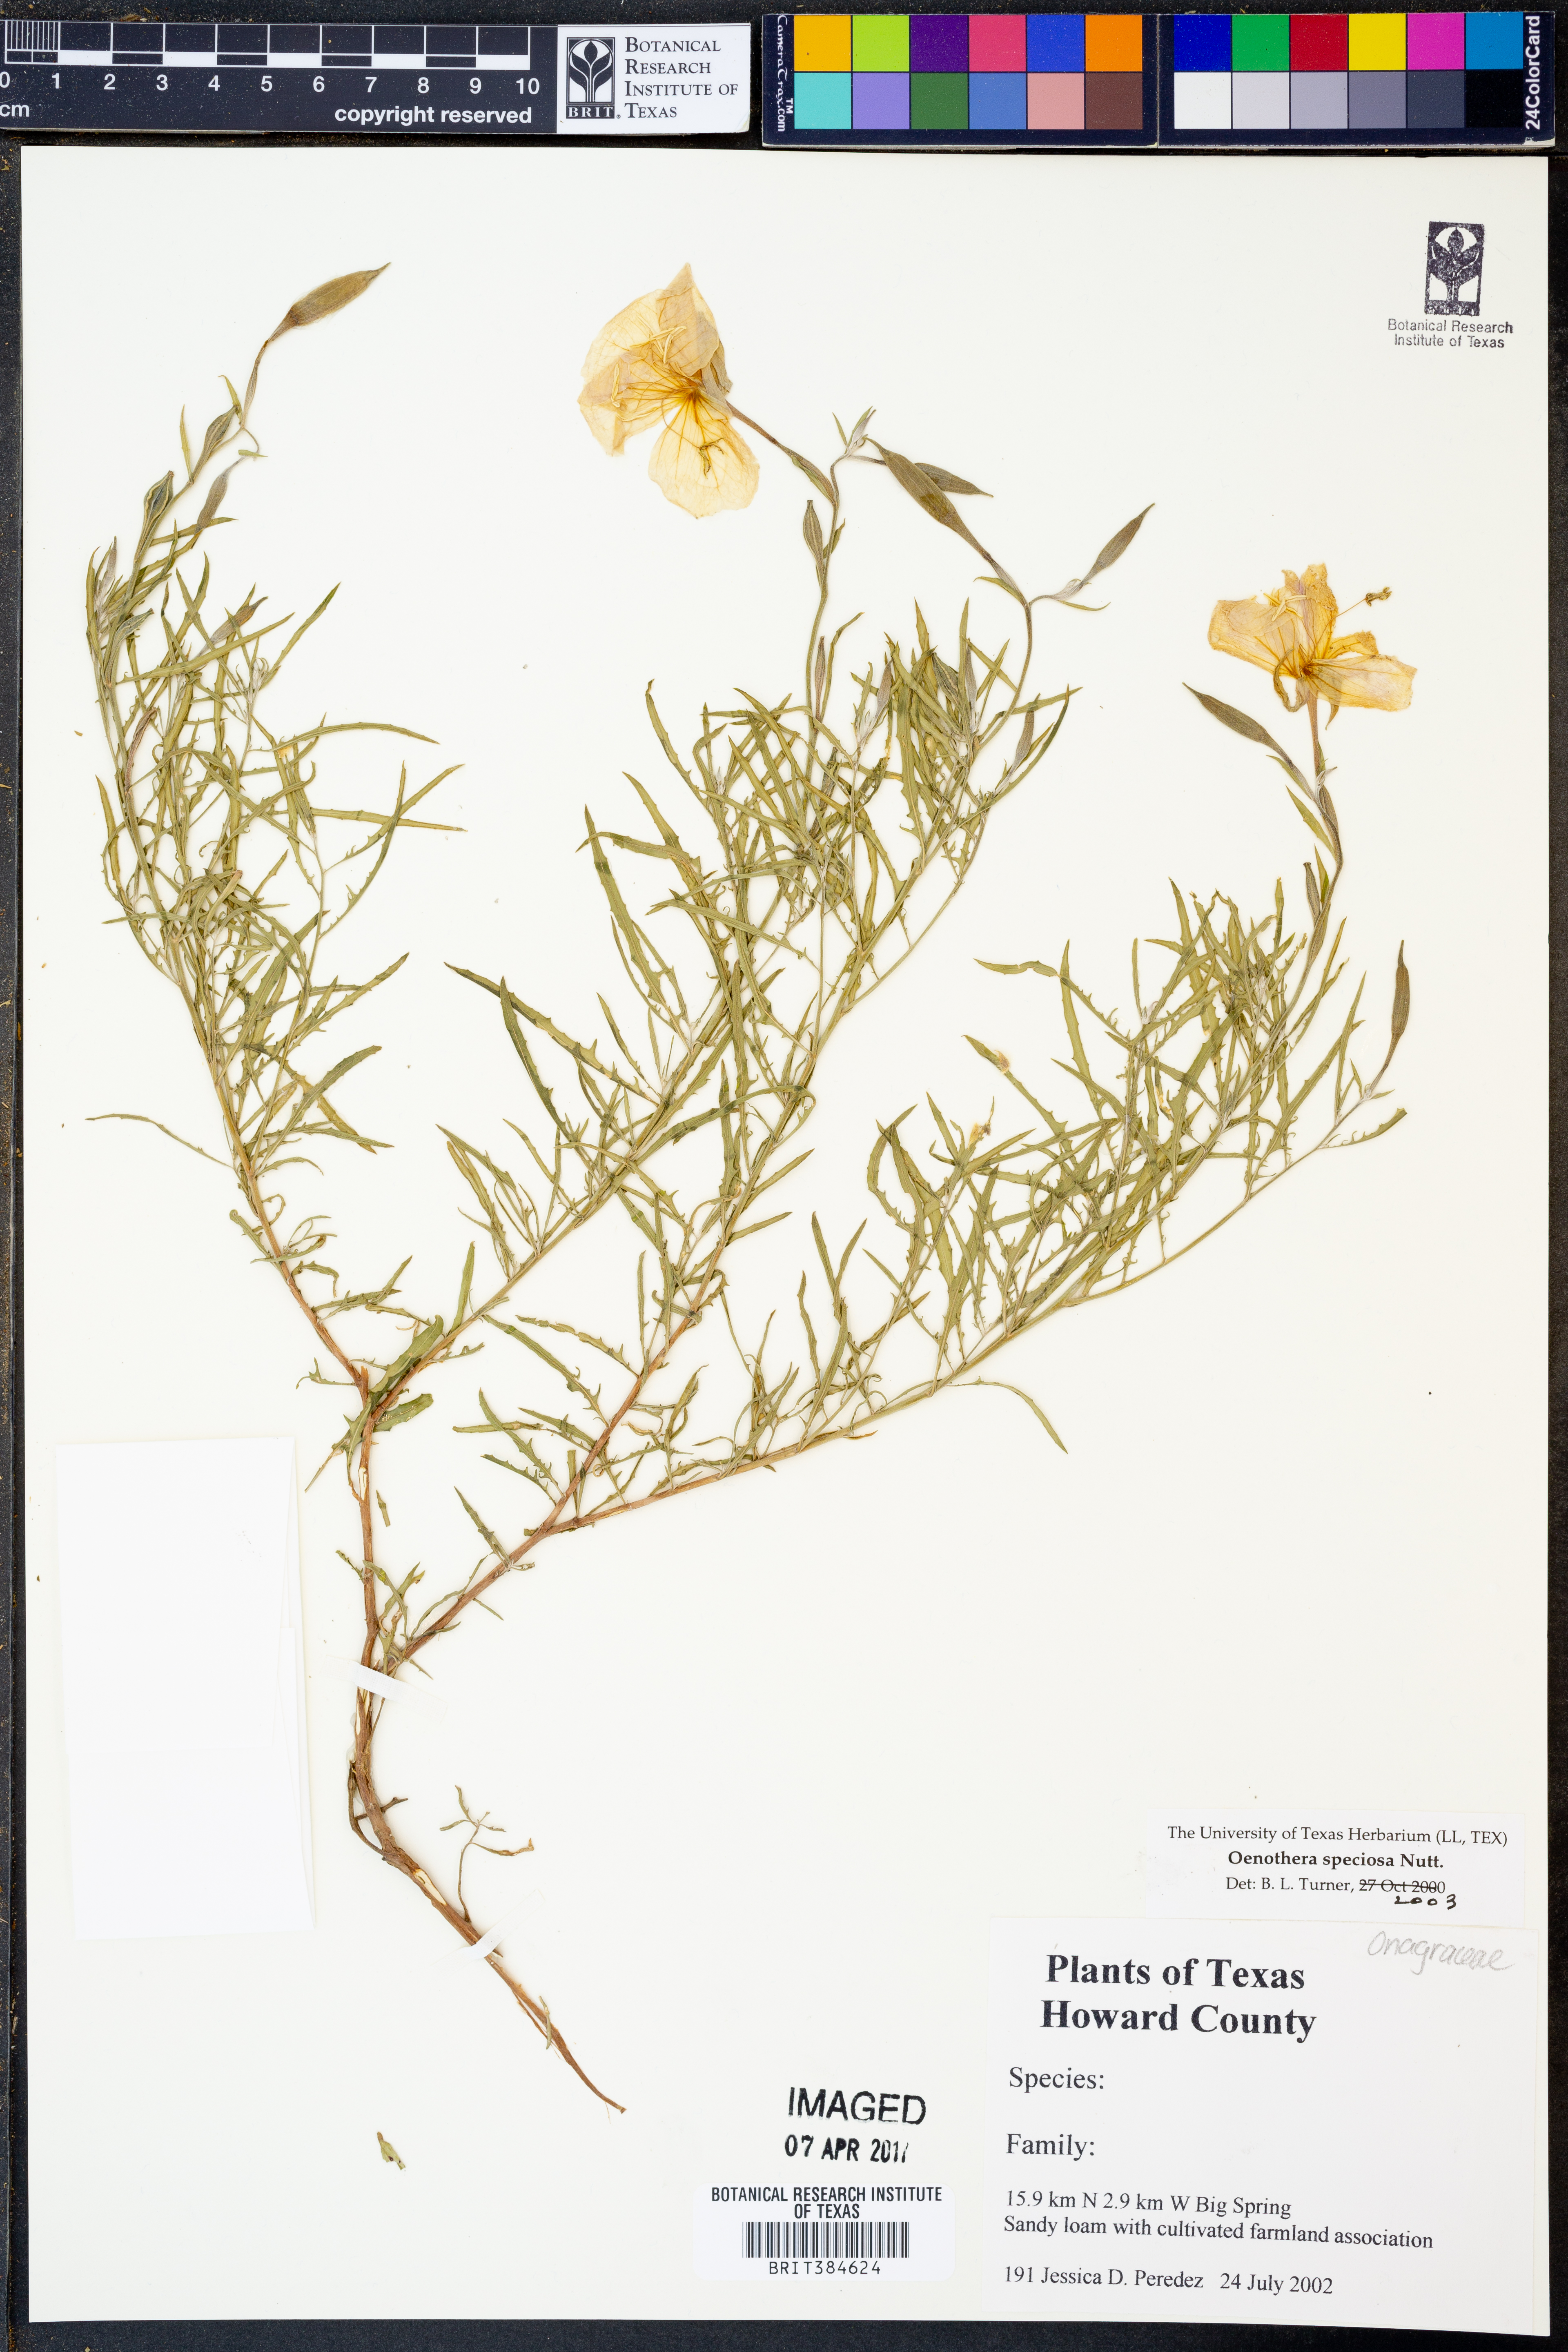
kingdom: Plantae
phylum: Tracheophyta
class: Magnoliopsida
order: Myrtales
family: Onagraceae
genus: Oenothera
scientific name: Oenothera speciosa
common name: White evening-primrose
